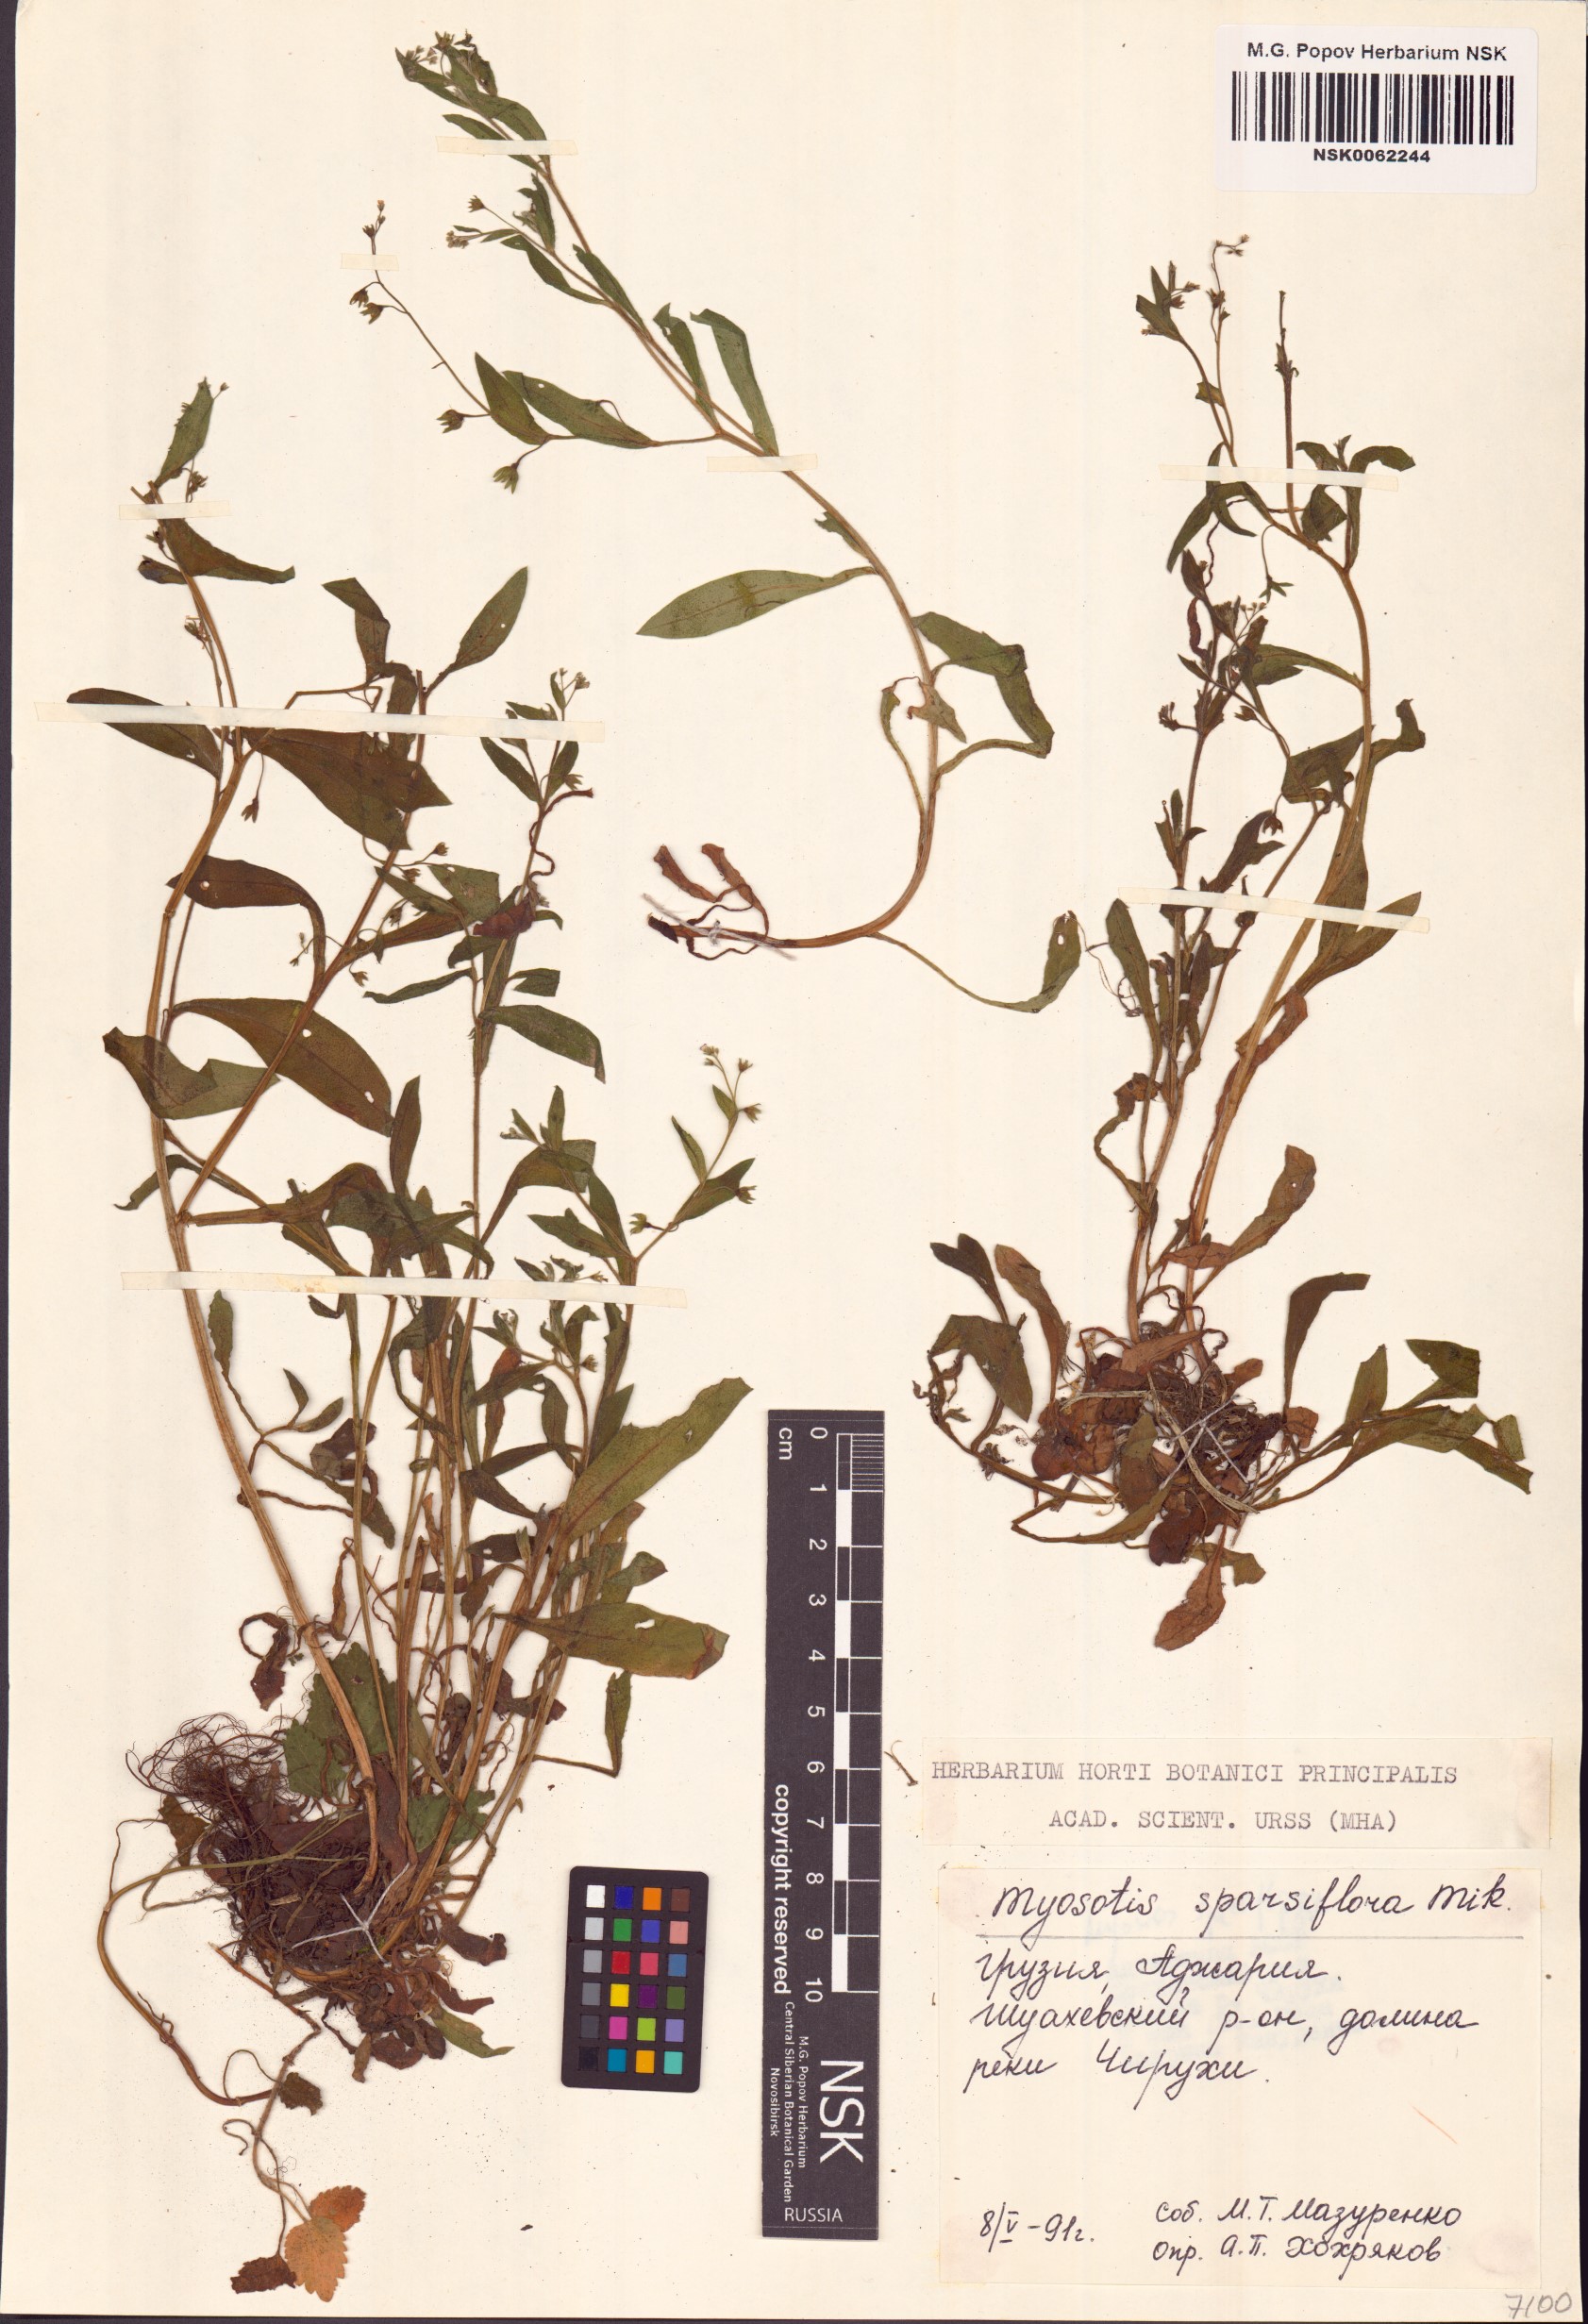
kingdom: Plantae
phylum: Tracheophyta
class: Magnoliopsida
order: Boraginales
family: Boraginaceae
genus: Myosotis
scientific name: Myosotis sparsiflora
